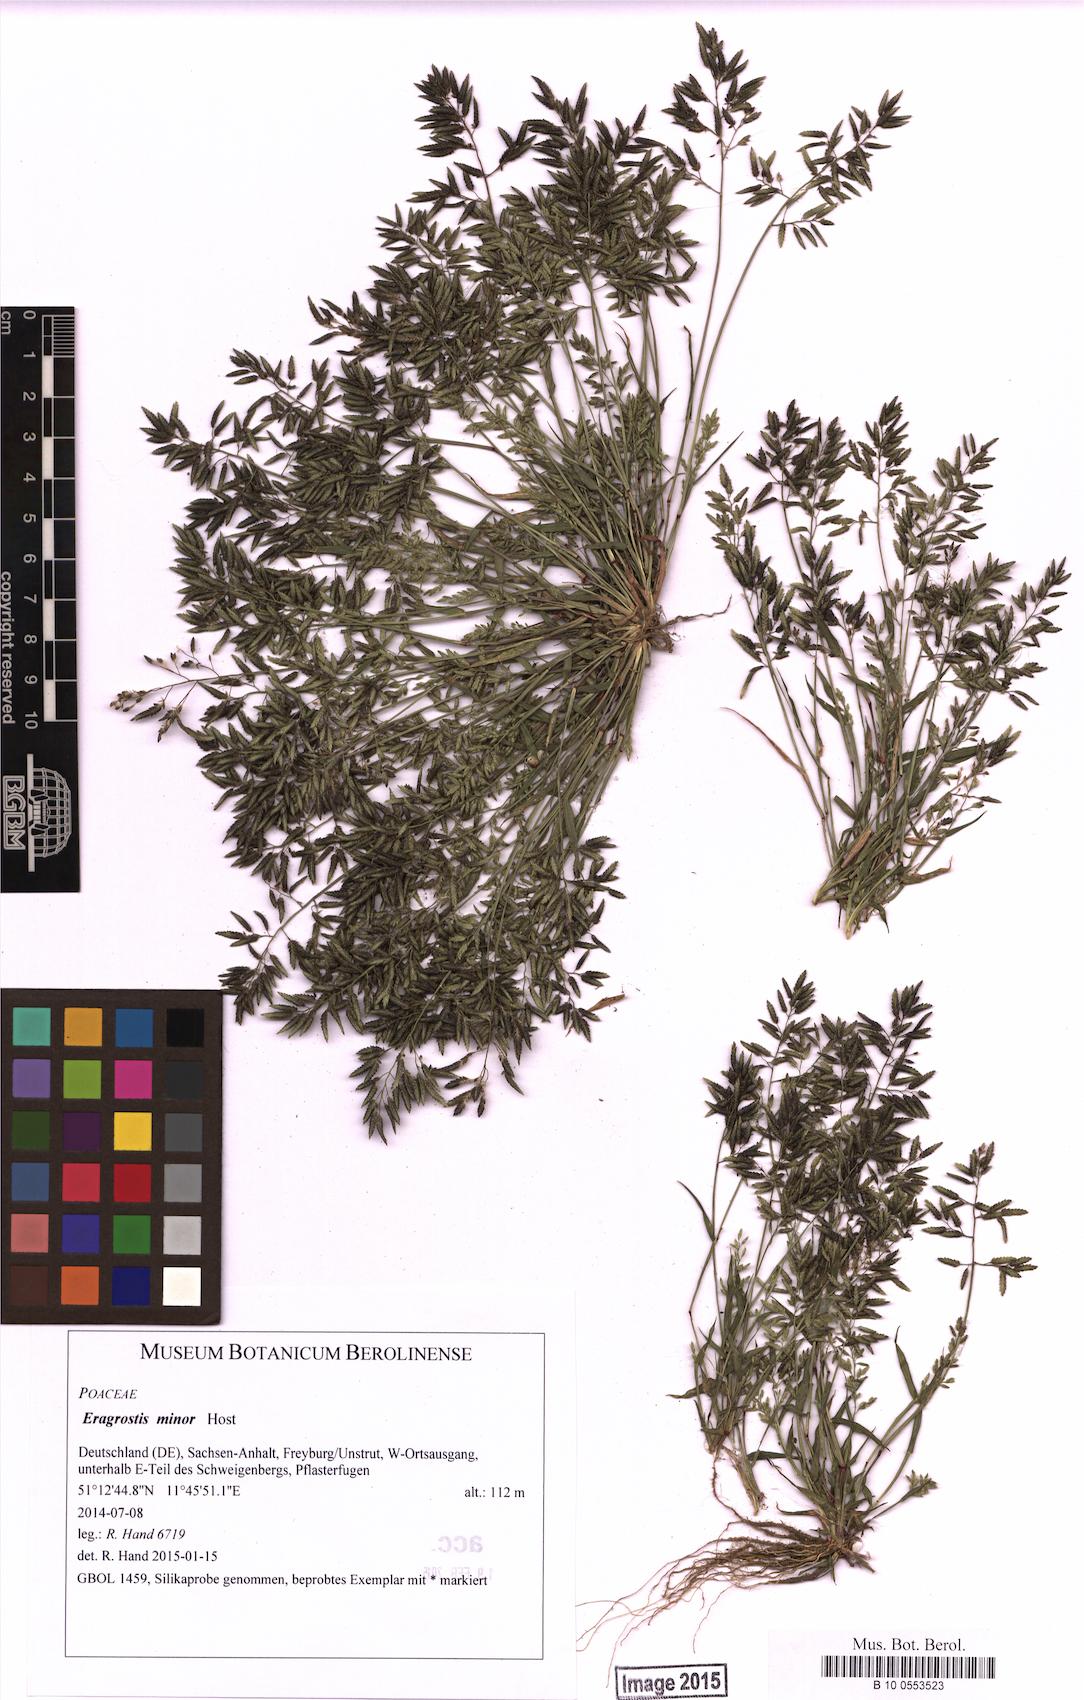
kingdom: Plantae
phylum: Tracheophyta
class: Liliopsida
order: Poales
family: Poaceae
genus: Eragrostis
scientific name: Eragrostis minor
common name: Small love-grass
